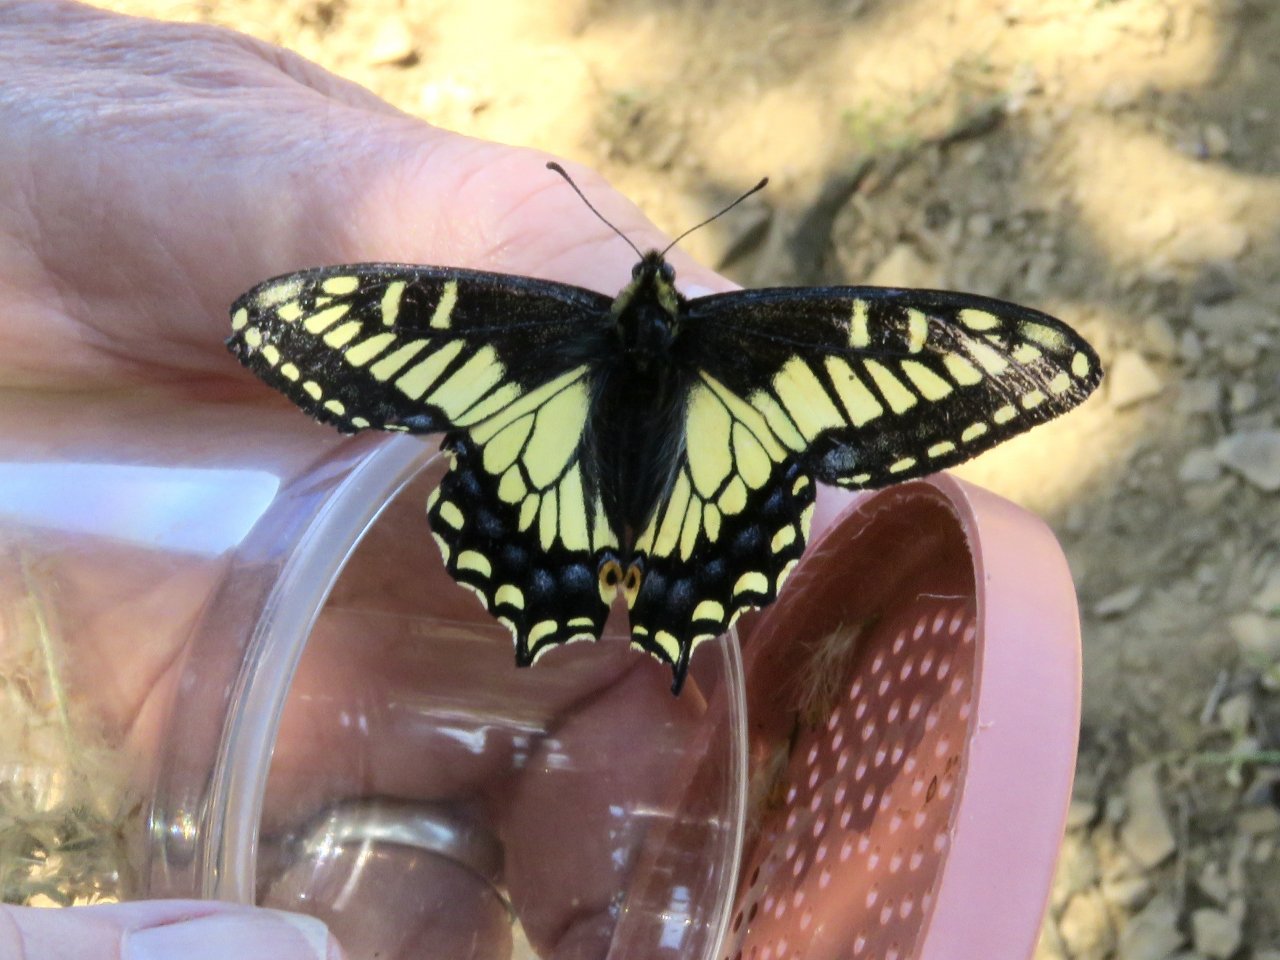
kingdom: Animalia
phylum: Arthropoda
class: Insecta
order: Lepidoptera
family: Papilionidae
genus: Papilio
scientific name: Papilio zelicaon
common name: Anise Swallowtail
